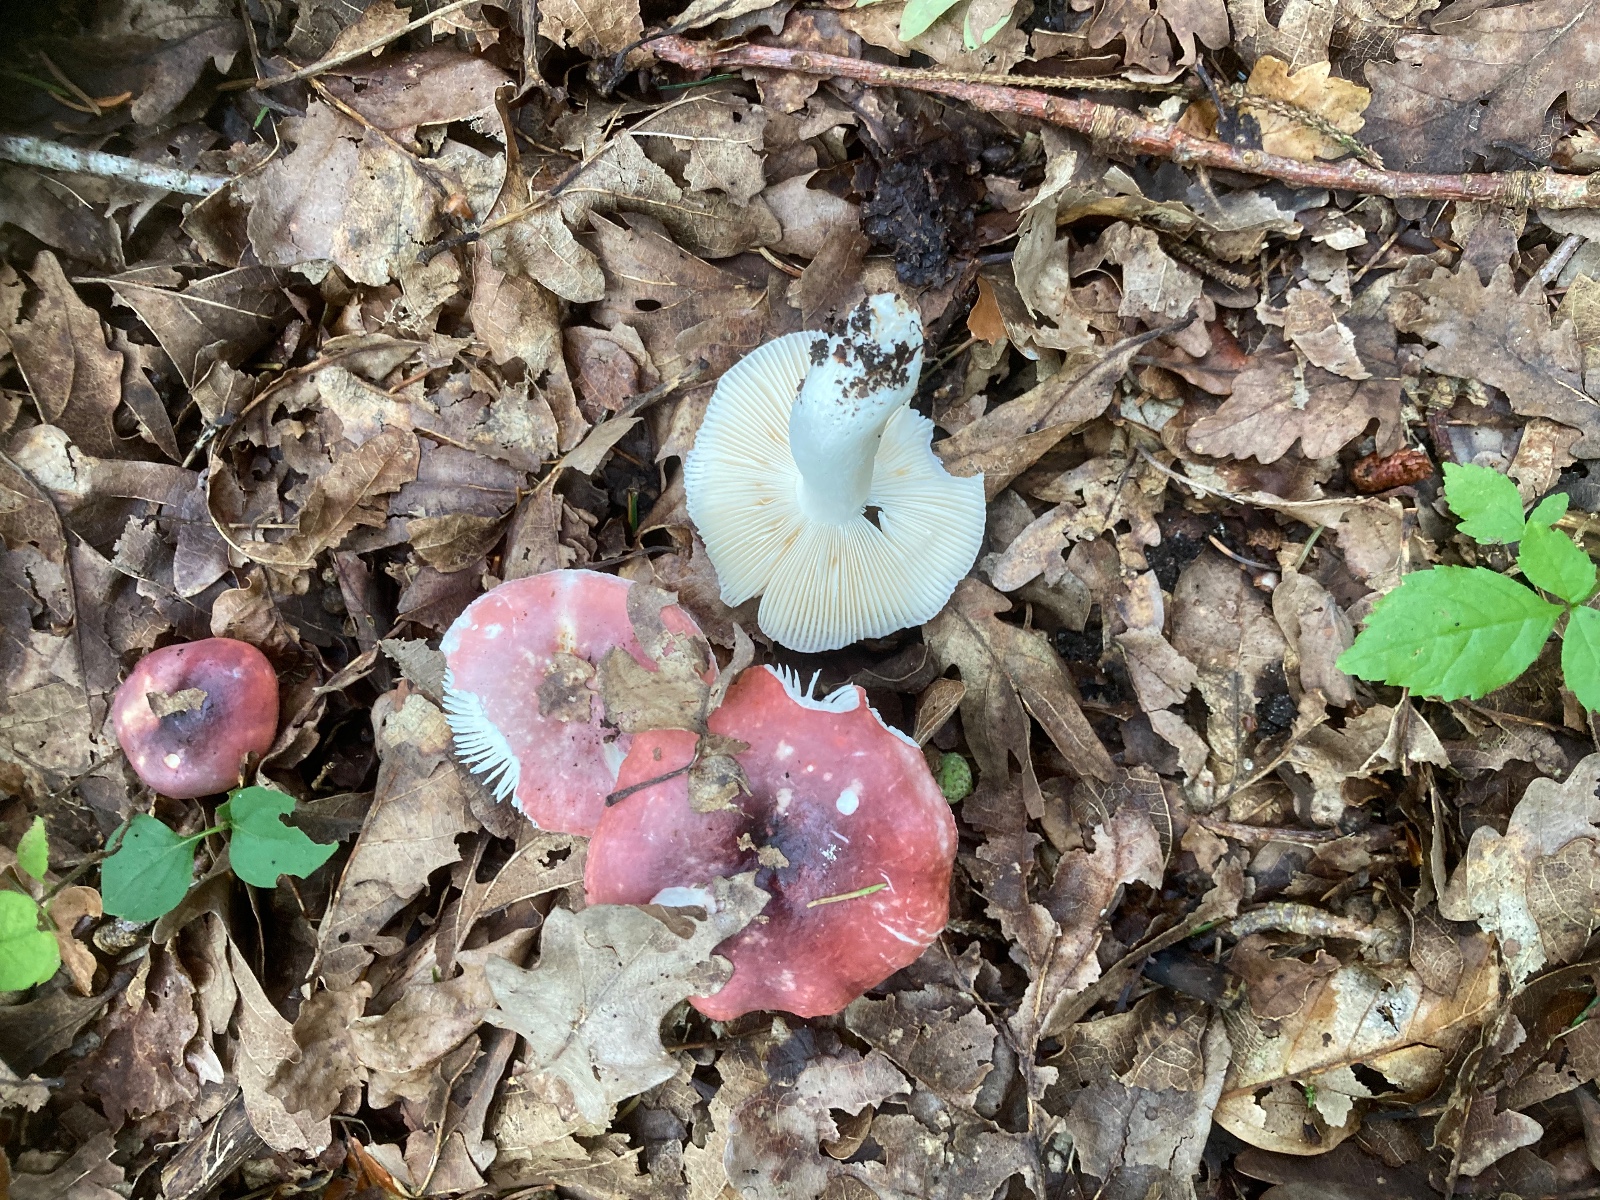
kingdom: Fungi
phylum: Basidiomycota
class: Agaricomycetes
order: Russulales
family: Russulaceae
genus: Russula
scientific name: Russula
